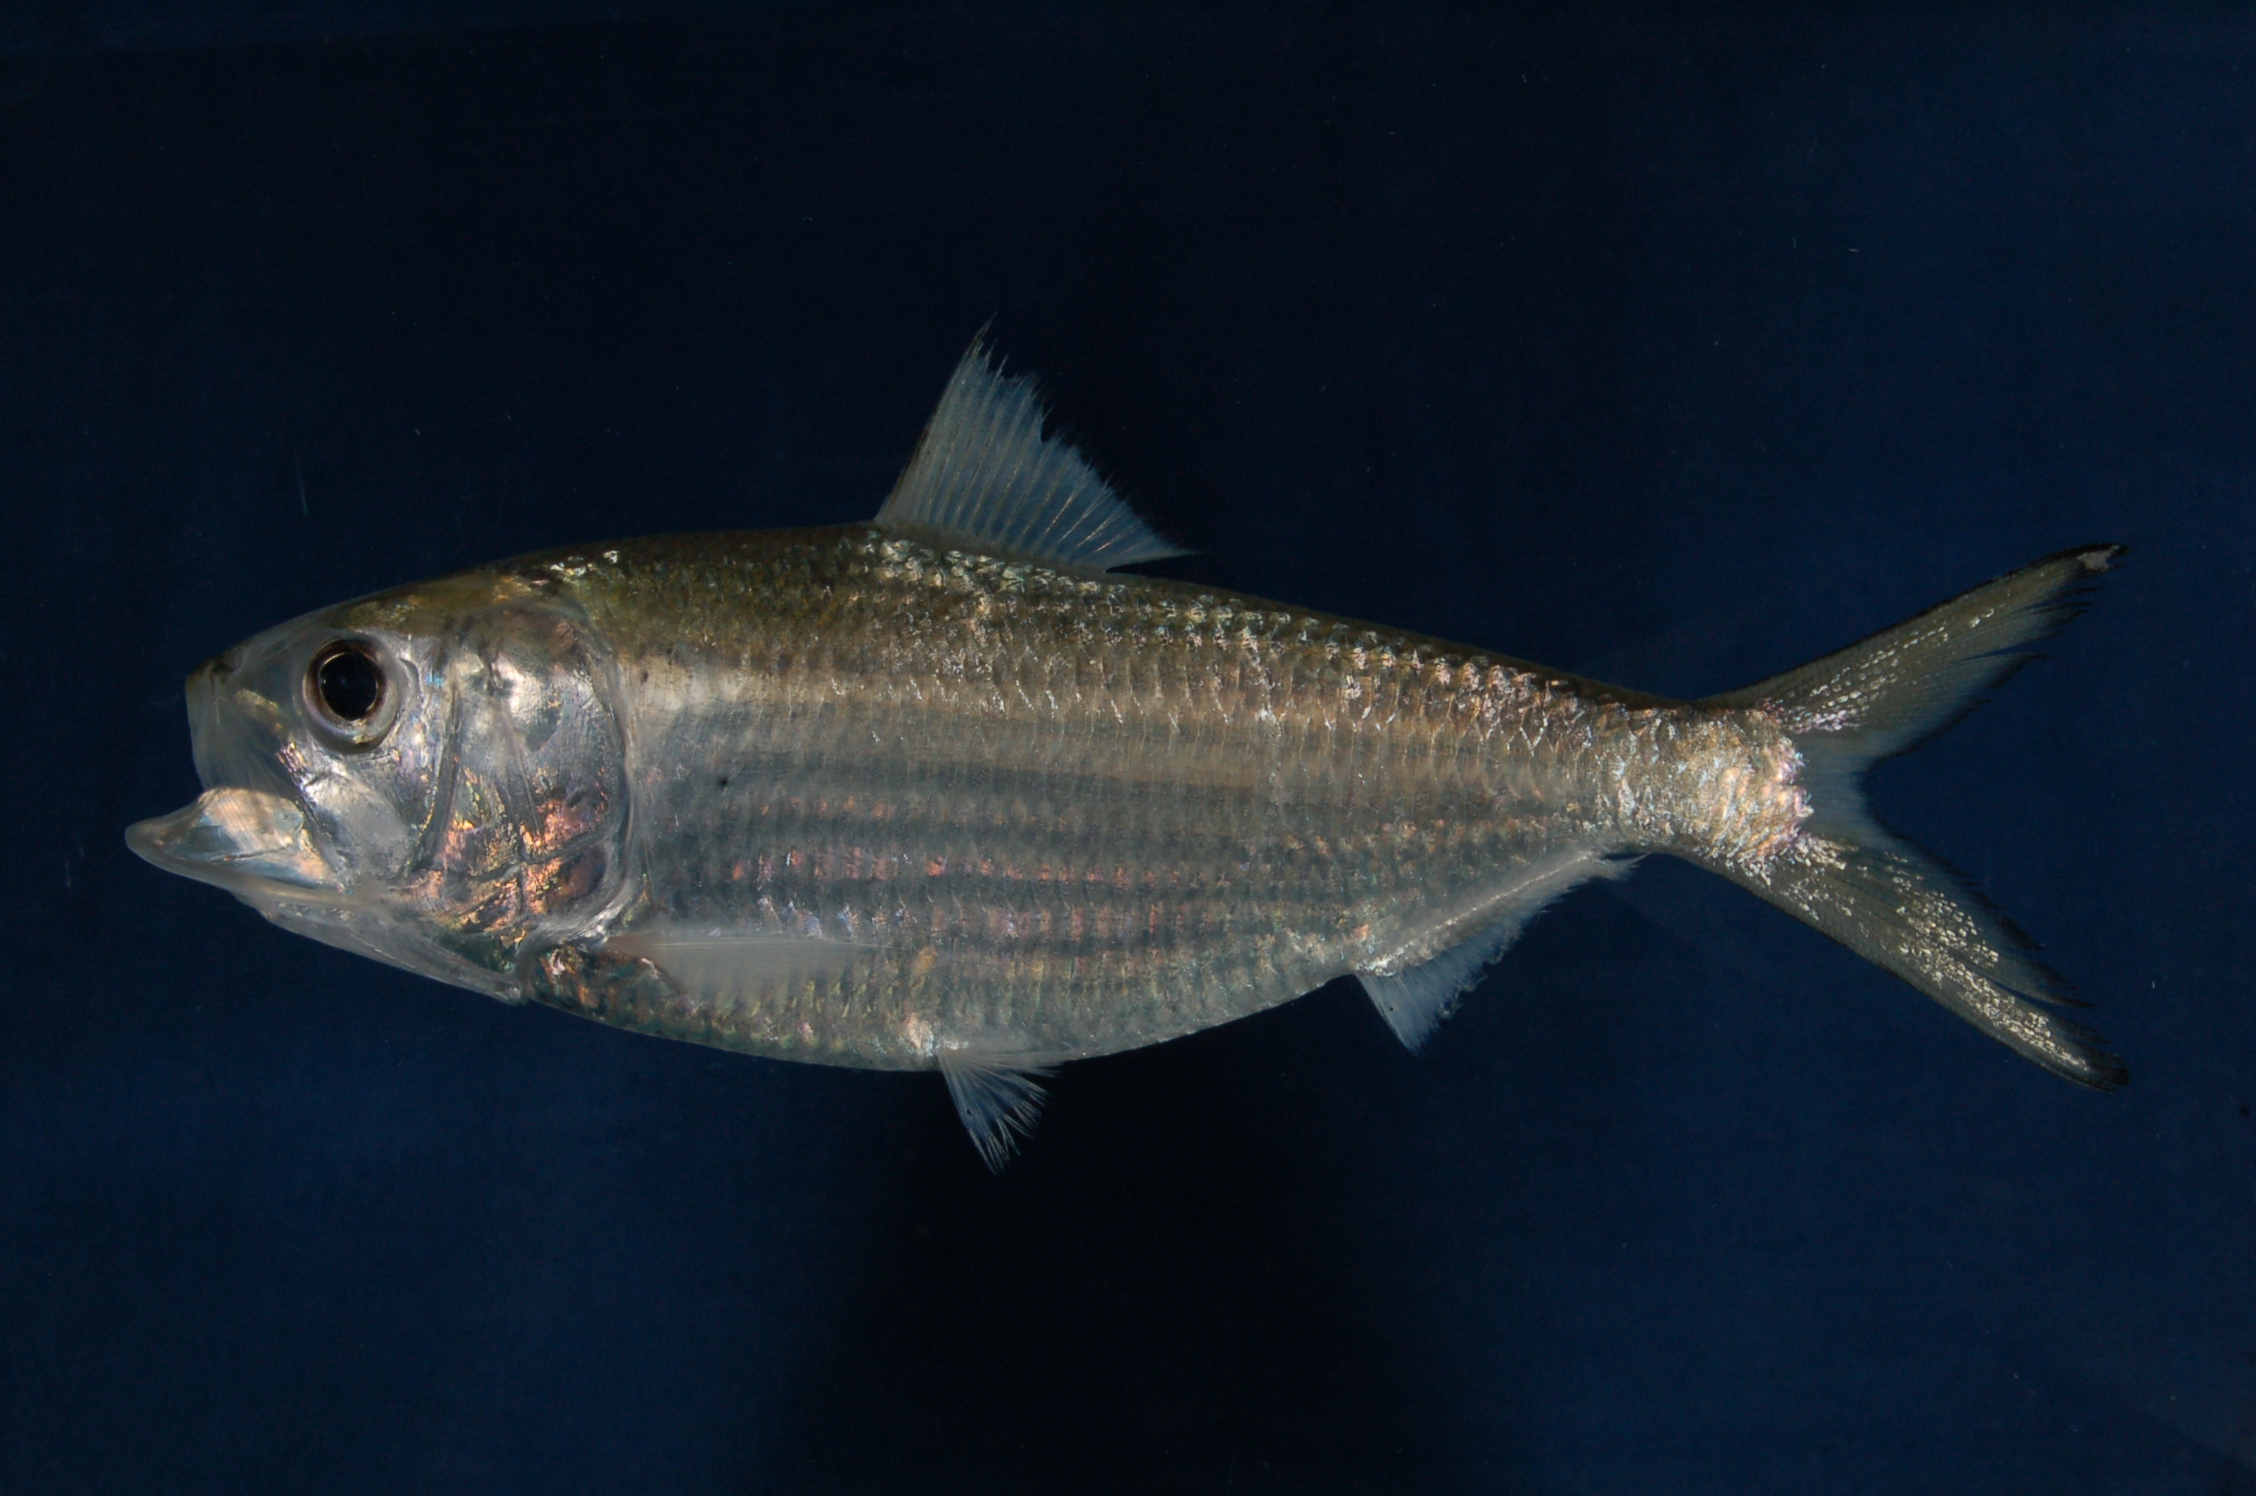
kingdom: Animalia
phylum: Chordata
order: Clupeiformes
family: Clupeidae
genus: Hilsa
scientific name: Hilsa kelee
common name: Kelee shad
